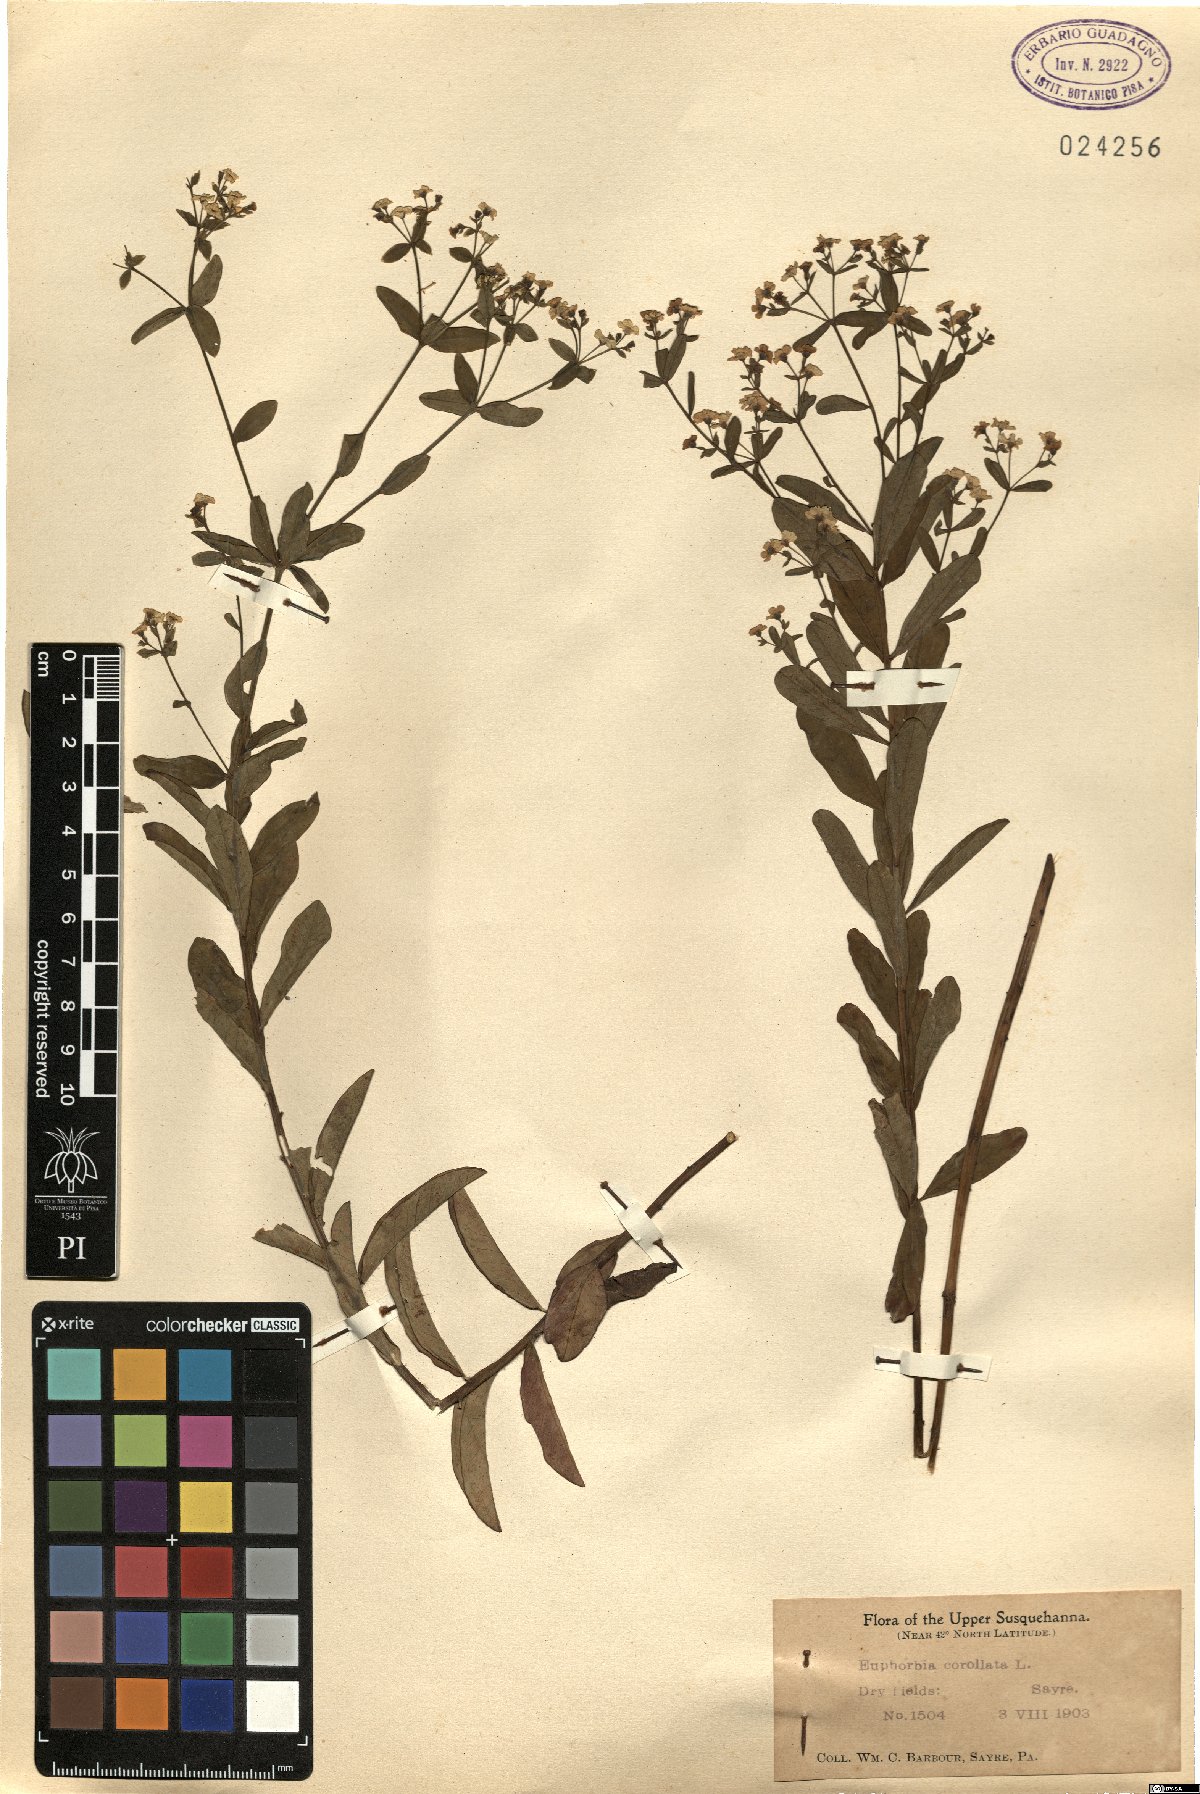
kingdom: Plantae
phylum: Tracheophyta
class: Magnoliopsida
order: Malpighiales
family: Euphorbiaceae
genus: Euphorbia
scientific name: Euphorbia corollata
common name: Flowering spurge
